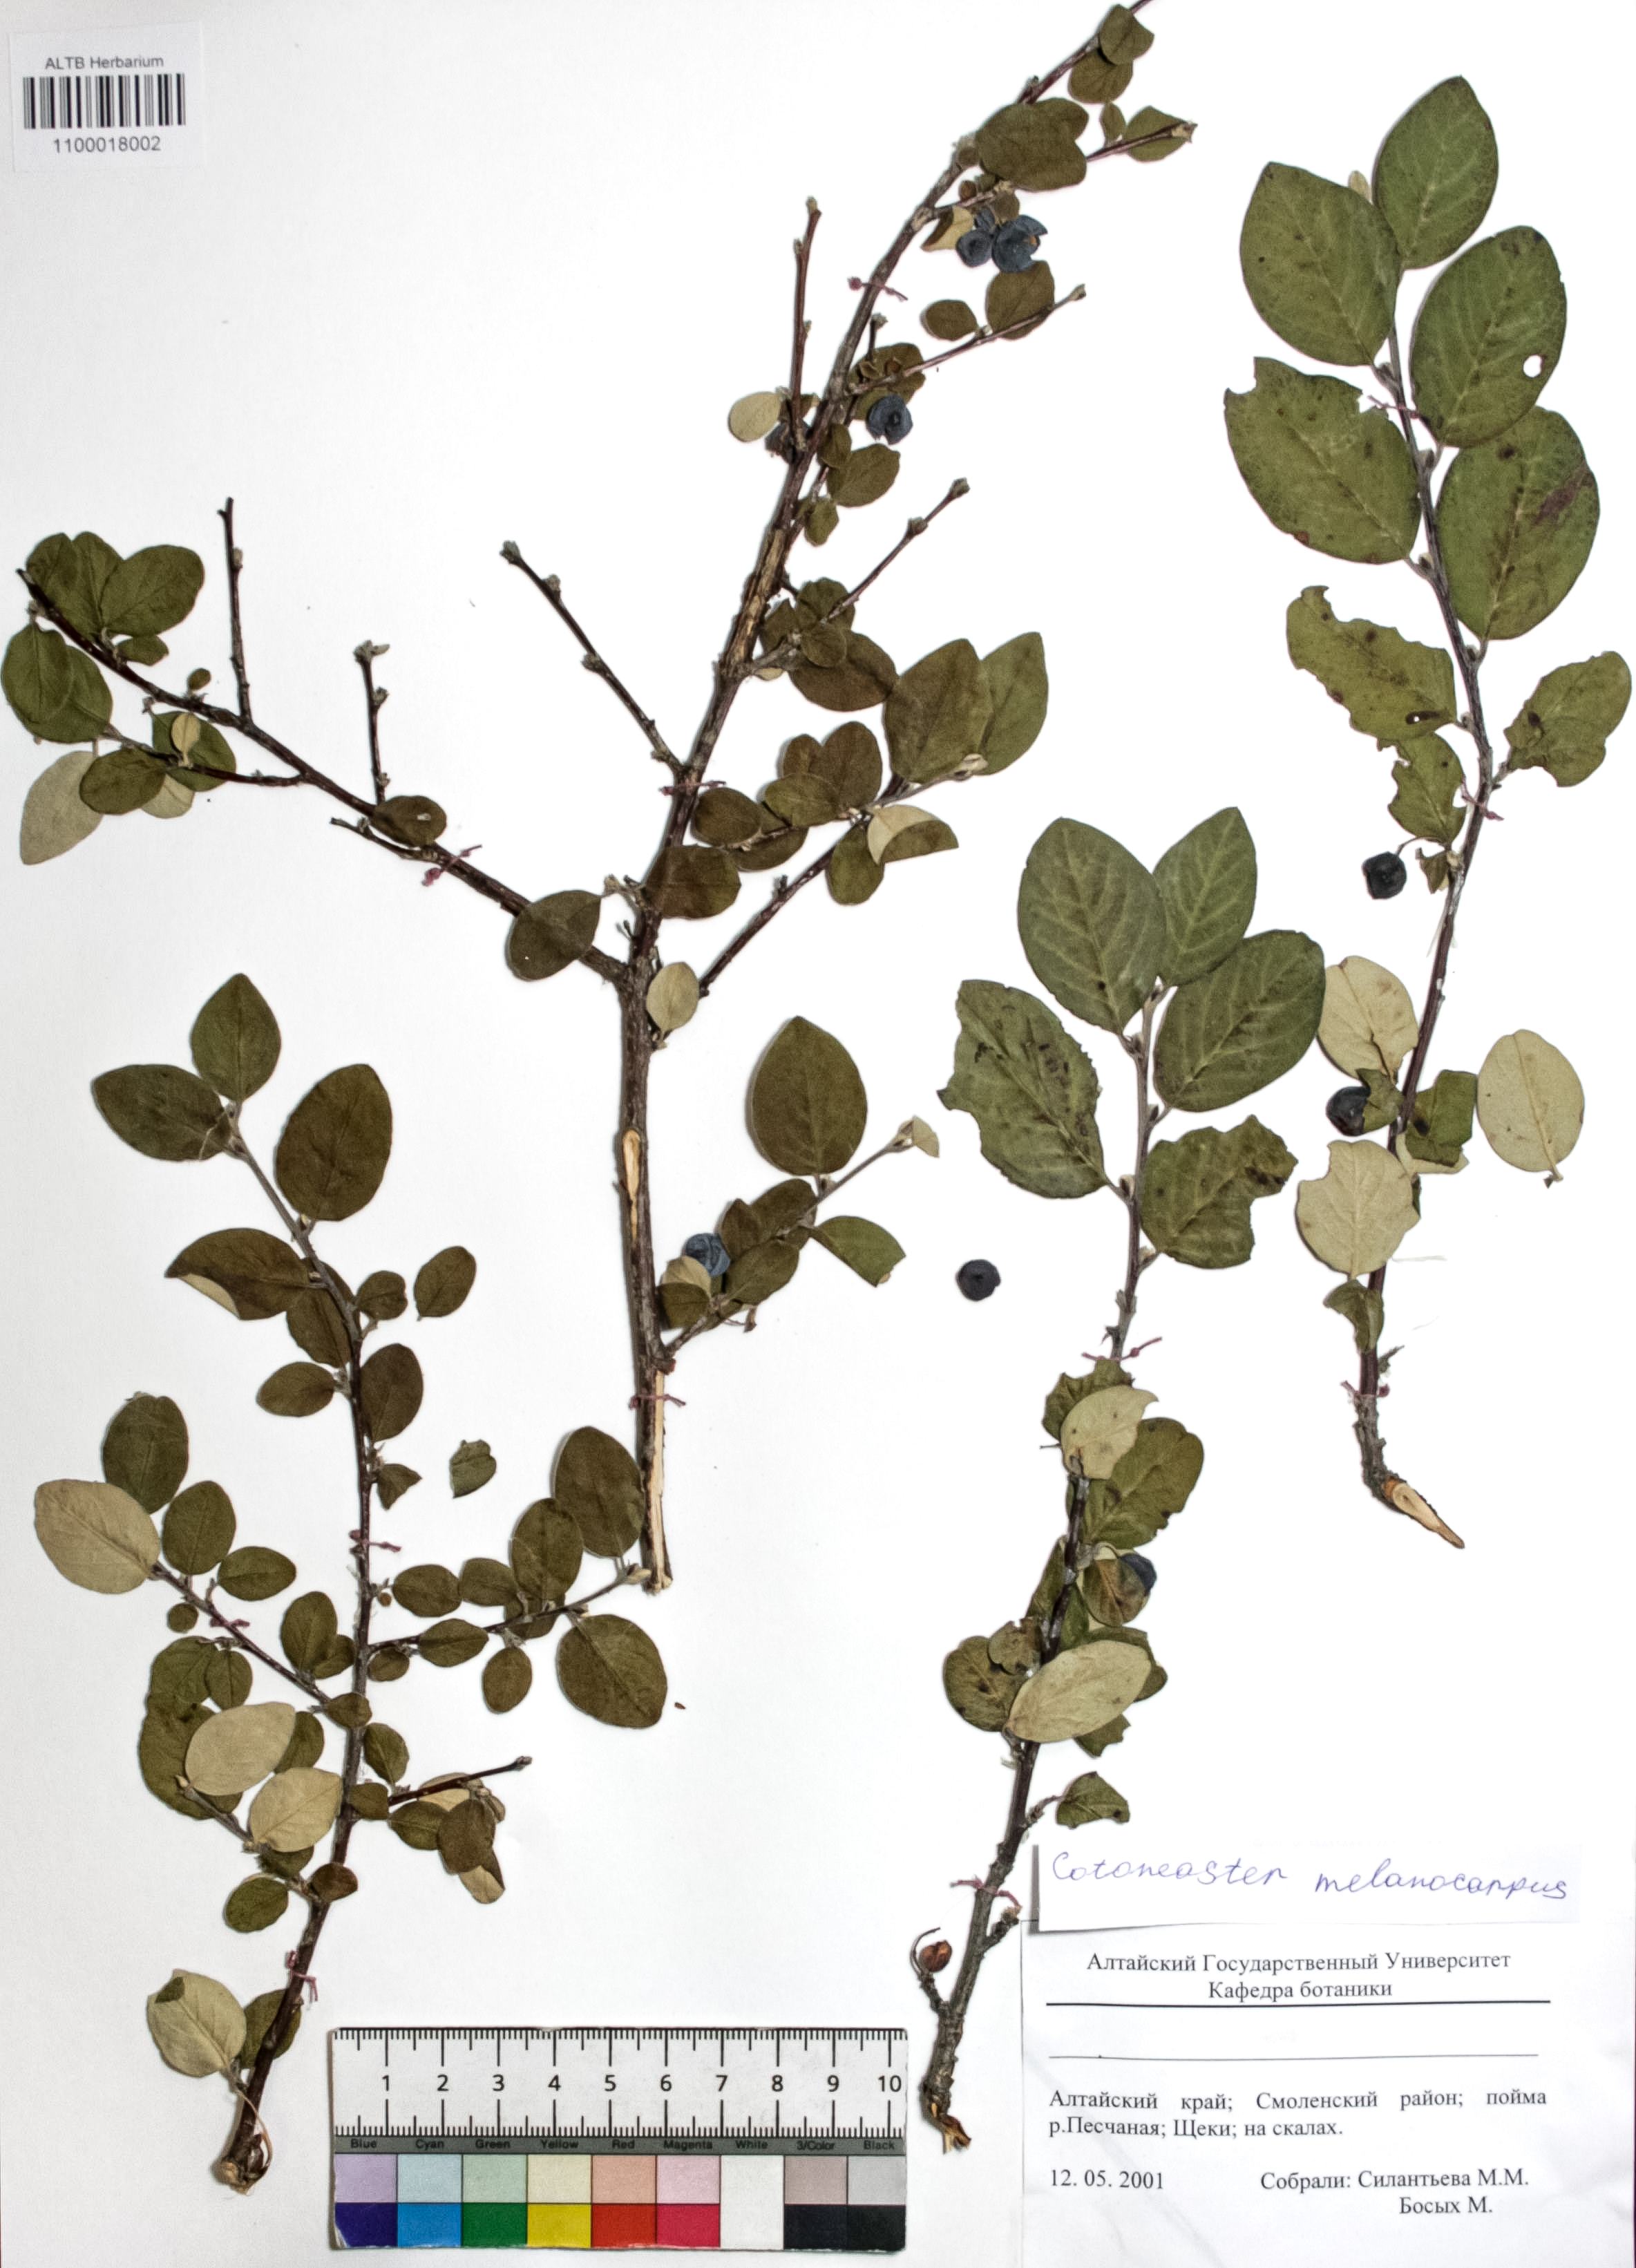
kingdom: Plantae
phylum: Tracheophyta
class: Magnoliopsida
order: Rosales
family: Rosaceae
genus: Cotoneaster
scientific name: Cotoneaster niger
